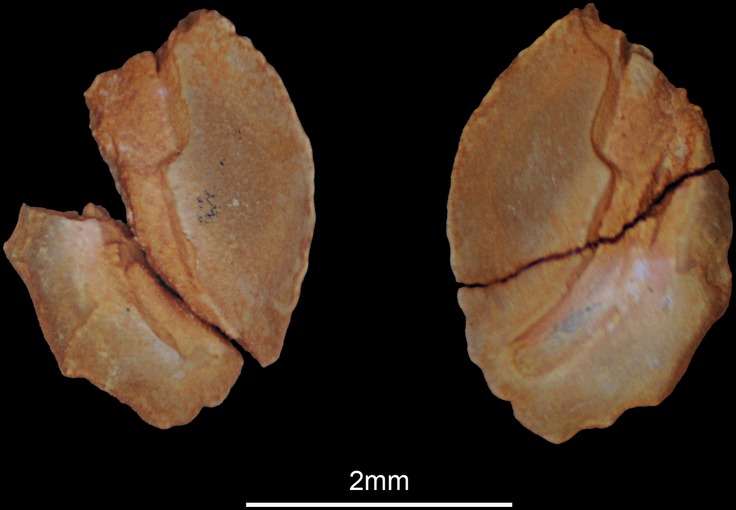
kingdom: Animalia
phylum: Chordata
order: Perciformes
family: Pomacanthidae
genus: Apolemichthys
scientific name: Apolemichthys xanthotis
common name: Red sea angelfish
